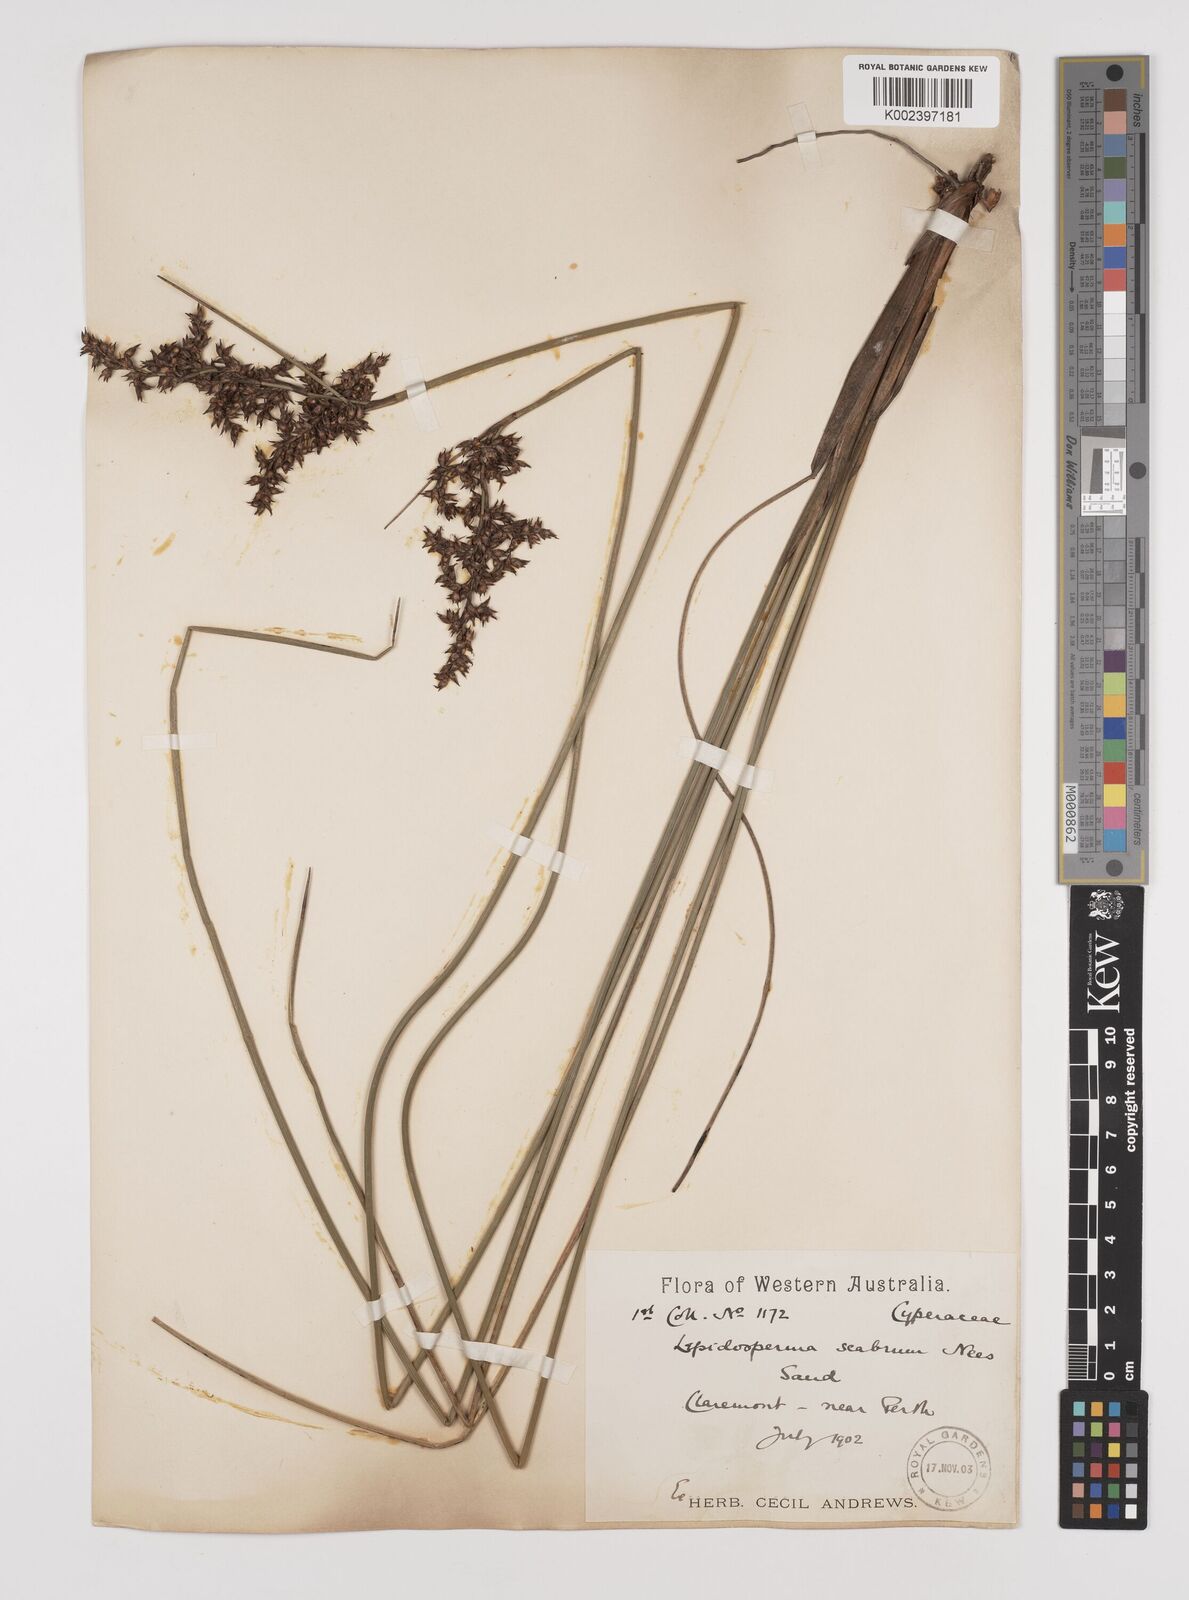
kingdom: Plantae
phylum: Tracheophyta
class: Liliopsida
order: Poales
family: Cyperaceae
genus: Lepidosperma
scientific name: Lepidosperma scabrum
